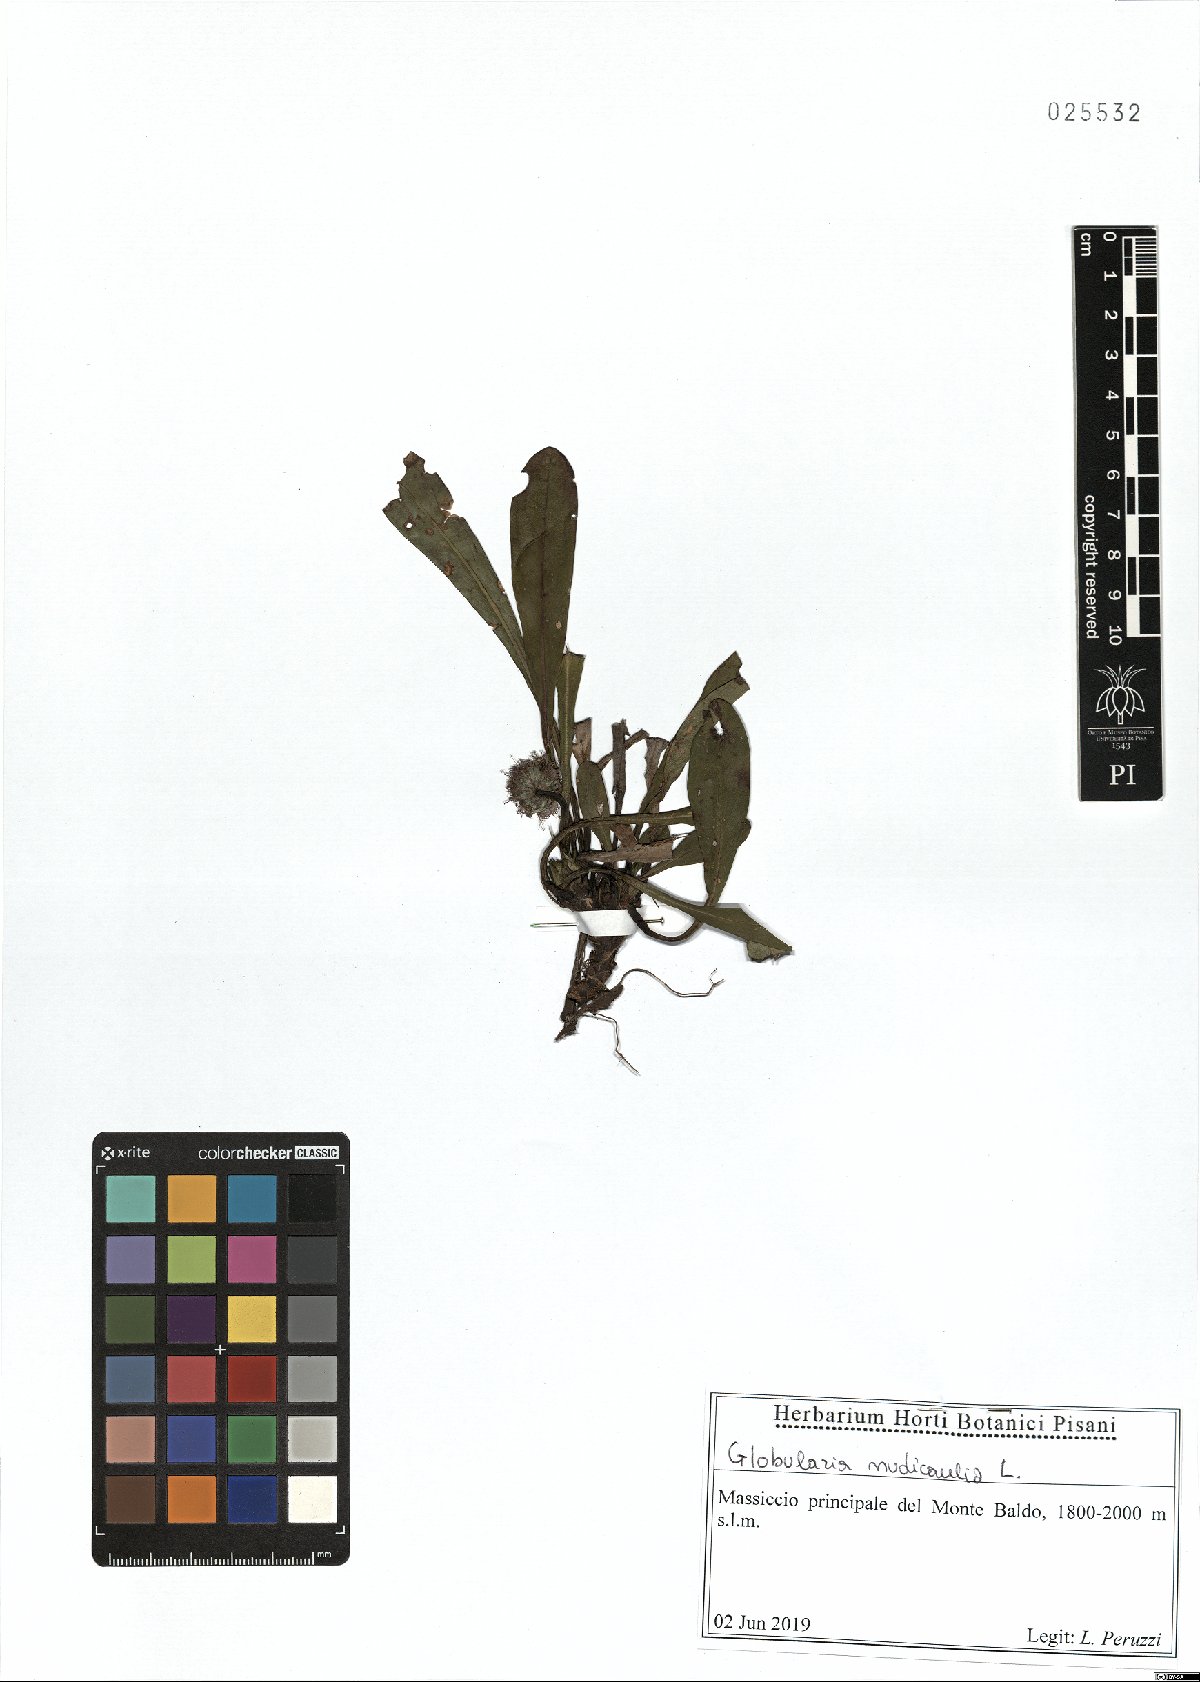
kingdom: Plantae
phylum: Tracheophyta
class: Magnoliopsida
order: Lamiales
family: Plantaginaceae
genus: Globularia
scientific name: Globularia nudicaulis
